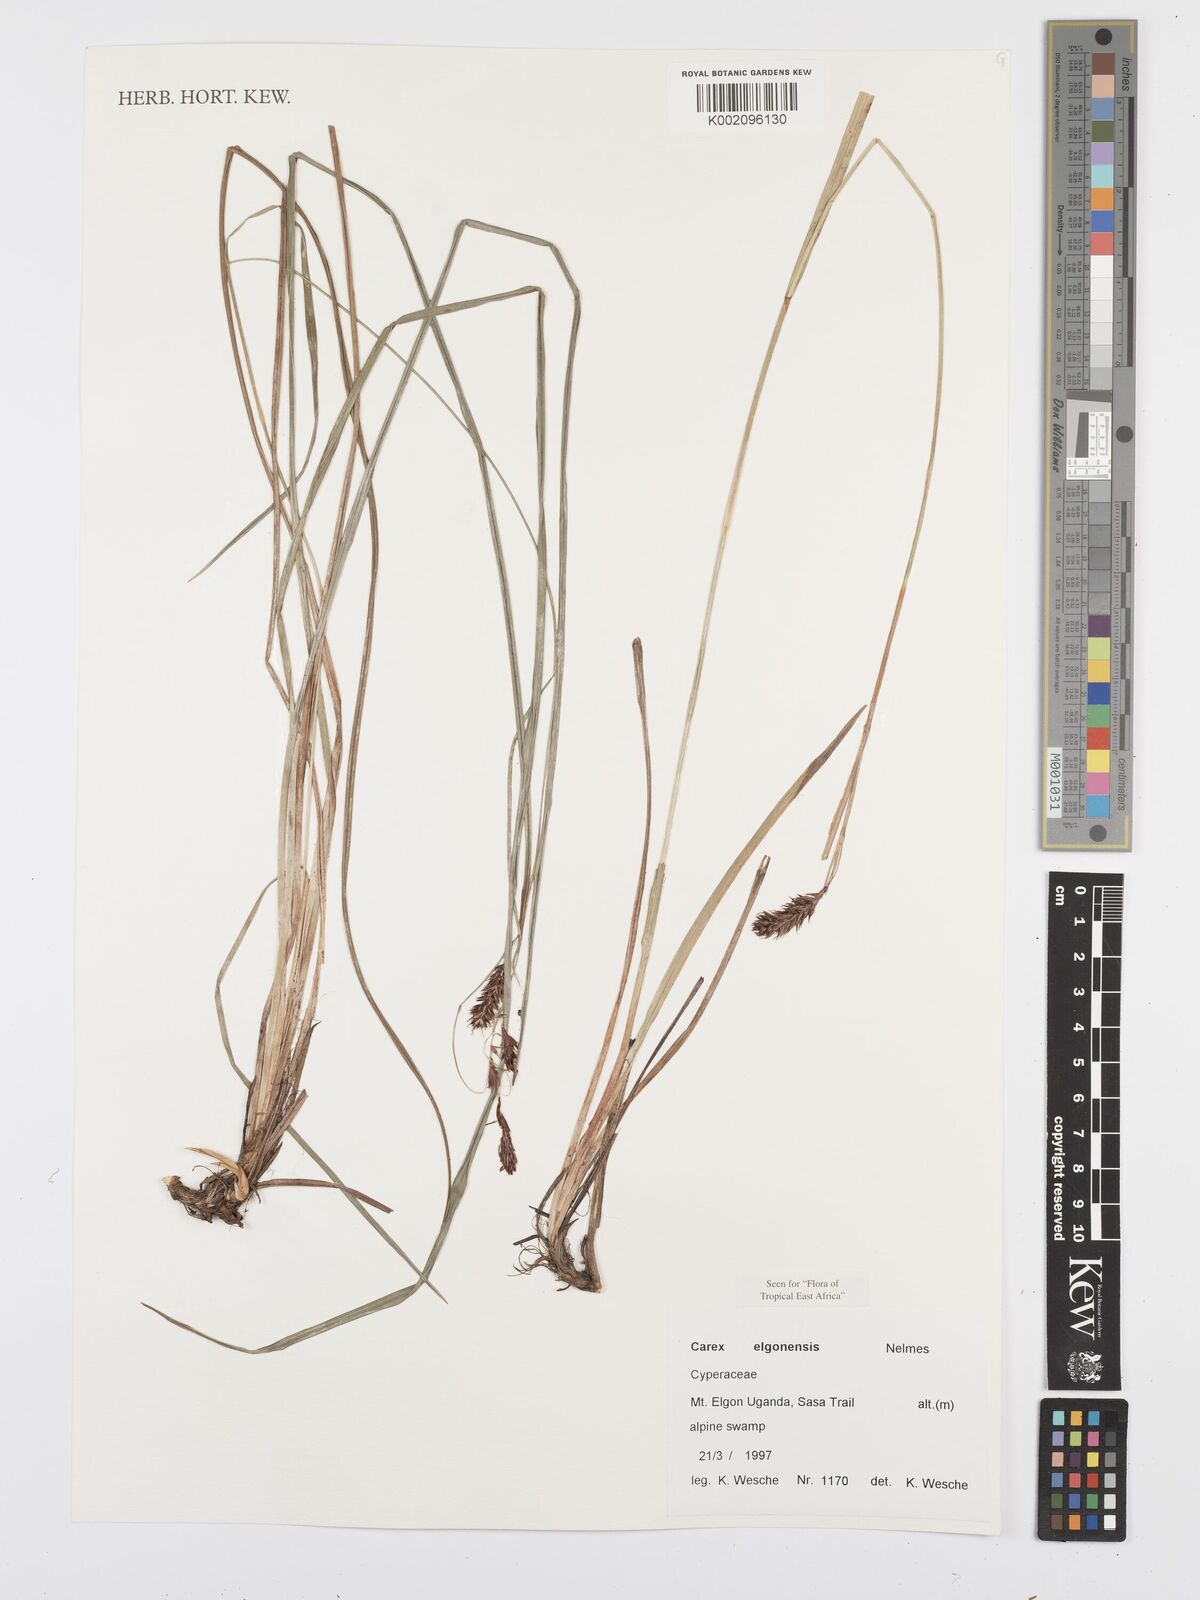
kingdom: Plantae
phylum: Tracheophyta
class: Liliopsida
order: Poales
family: Cyperaceae
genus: Carex
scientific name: Carex elgonensis
